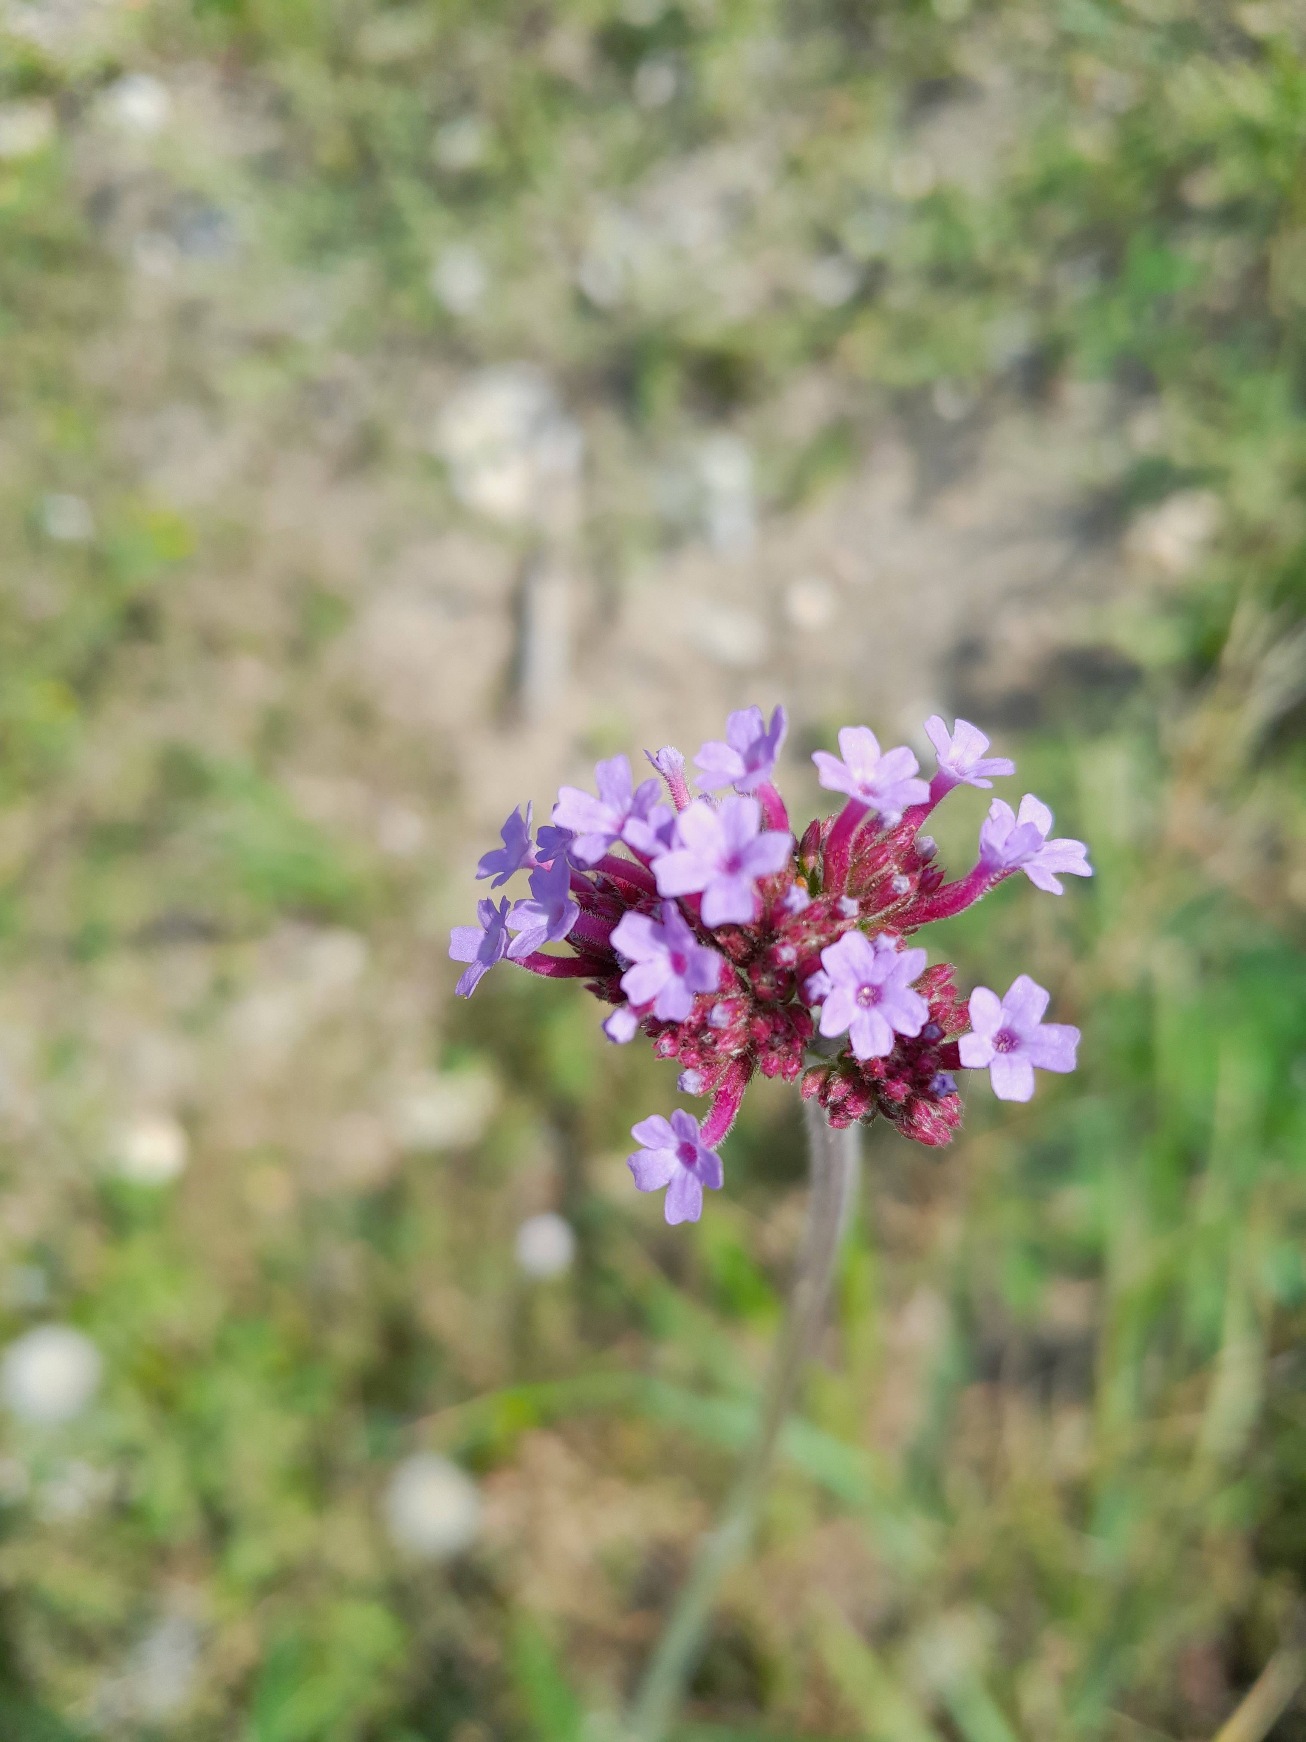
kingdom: Plantae
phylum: Tracheophyta
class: Magnoliopsida
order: Lamiales
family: Verbenaceae
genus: Verbena
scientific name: Verbena bonariensis
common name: Kæmpe-jernurt
